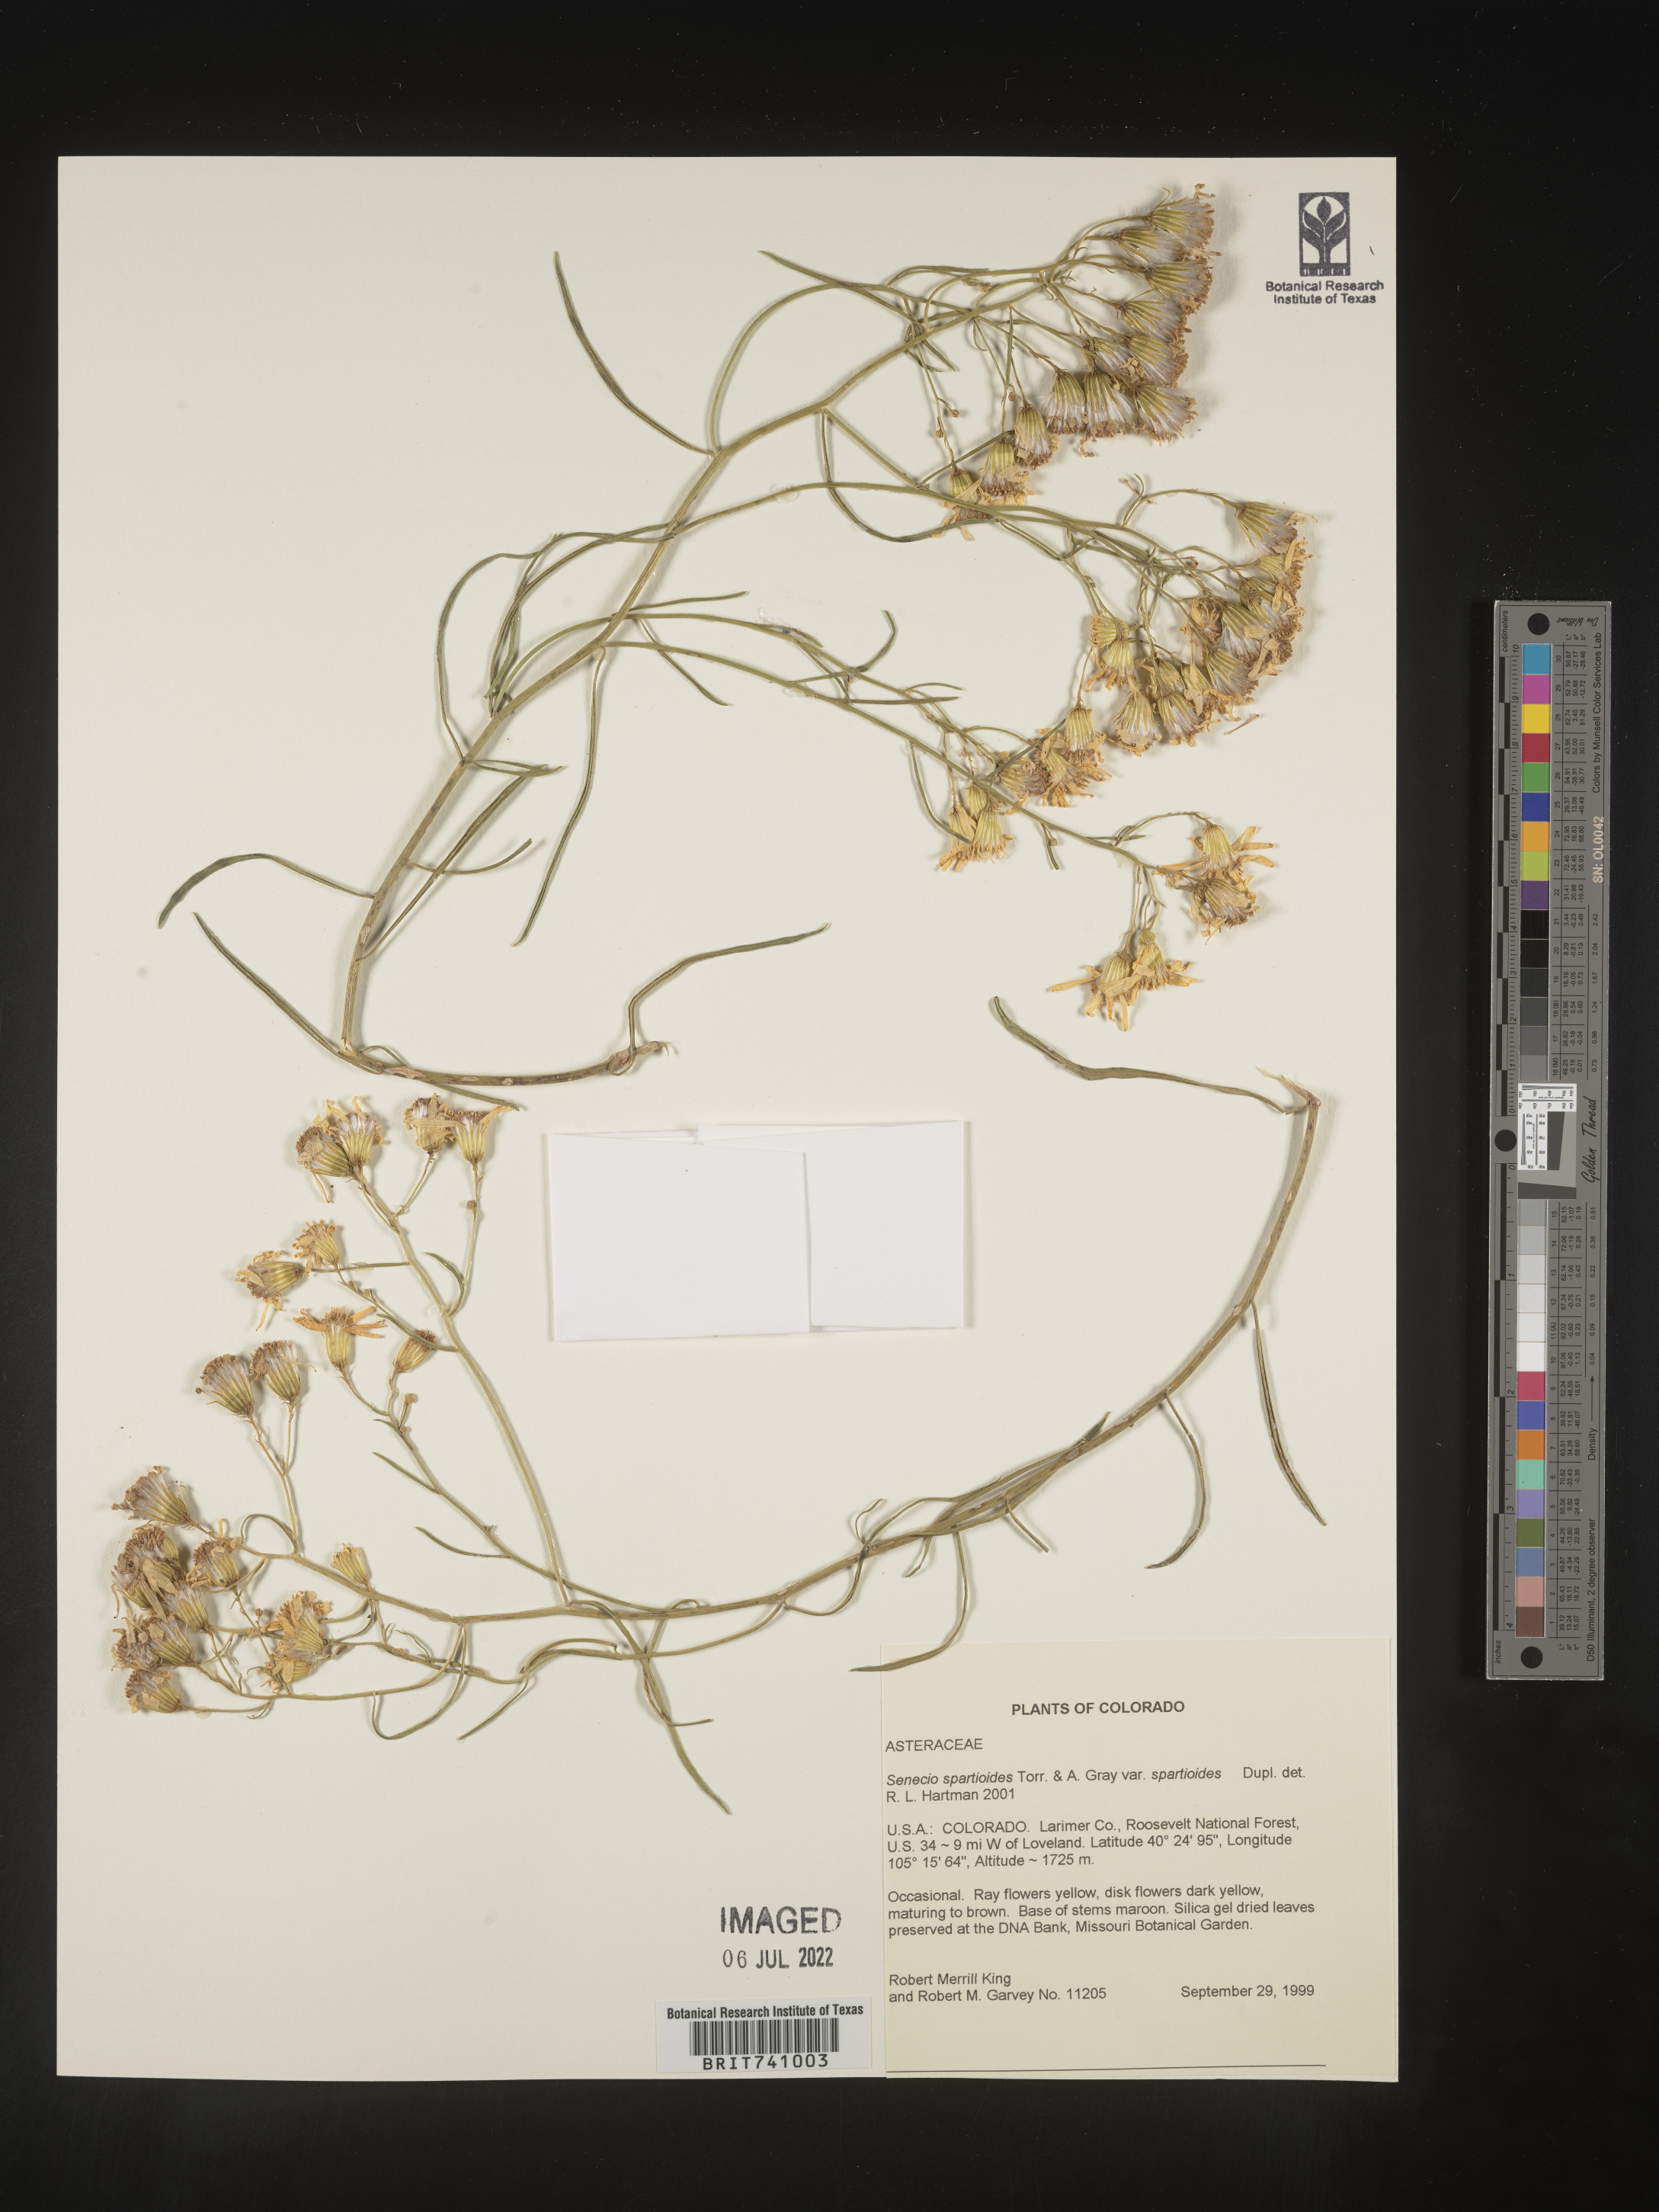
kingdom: Plantae
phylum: Tracheophyta
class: Magnoliopsida
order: Asterales
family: Asteraceae
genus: Senecio
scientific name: Senecio spartioides
